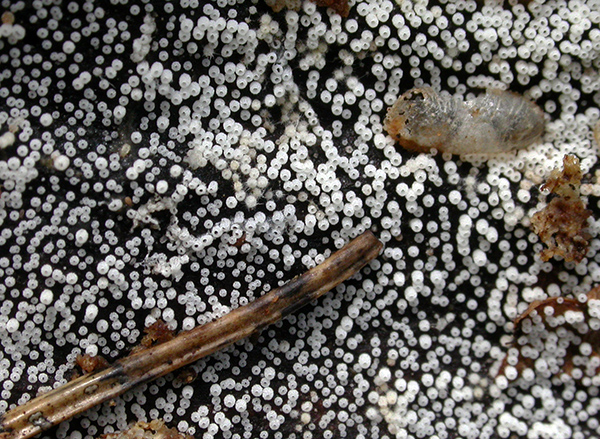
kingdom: Fungi
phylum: Basidiomycota
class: Agaricomycetes
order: Agaricales
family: Marasmiaceae
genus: Henningsomyces
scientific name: Henningsomyces puber
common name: dunet hængerør
